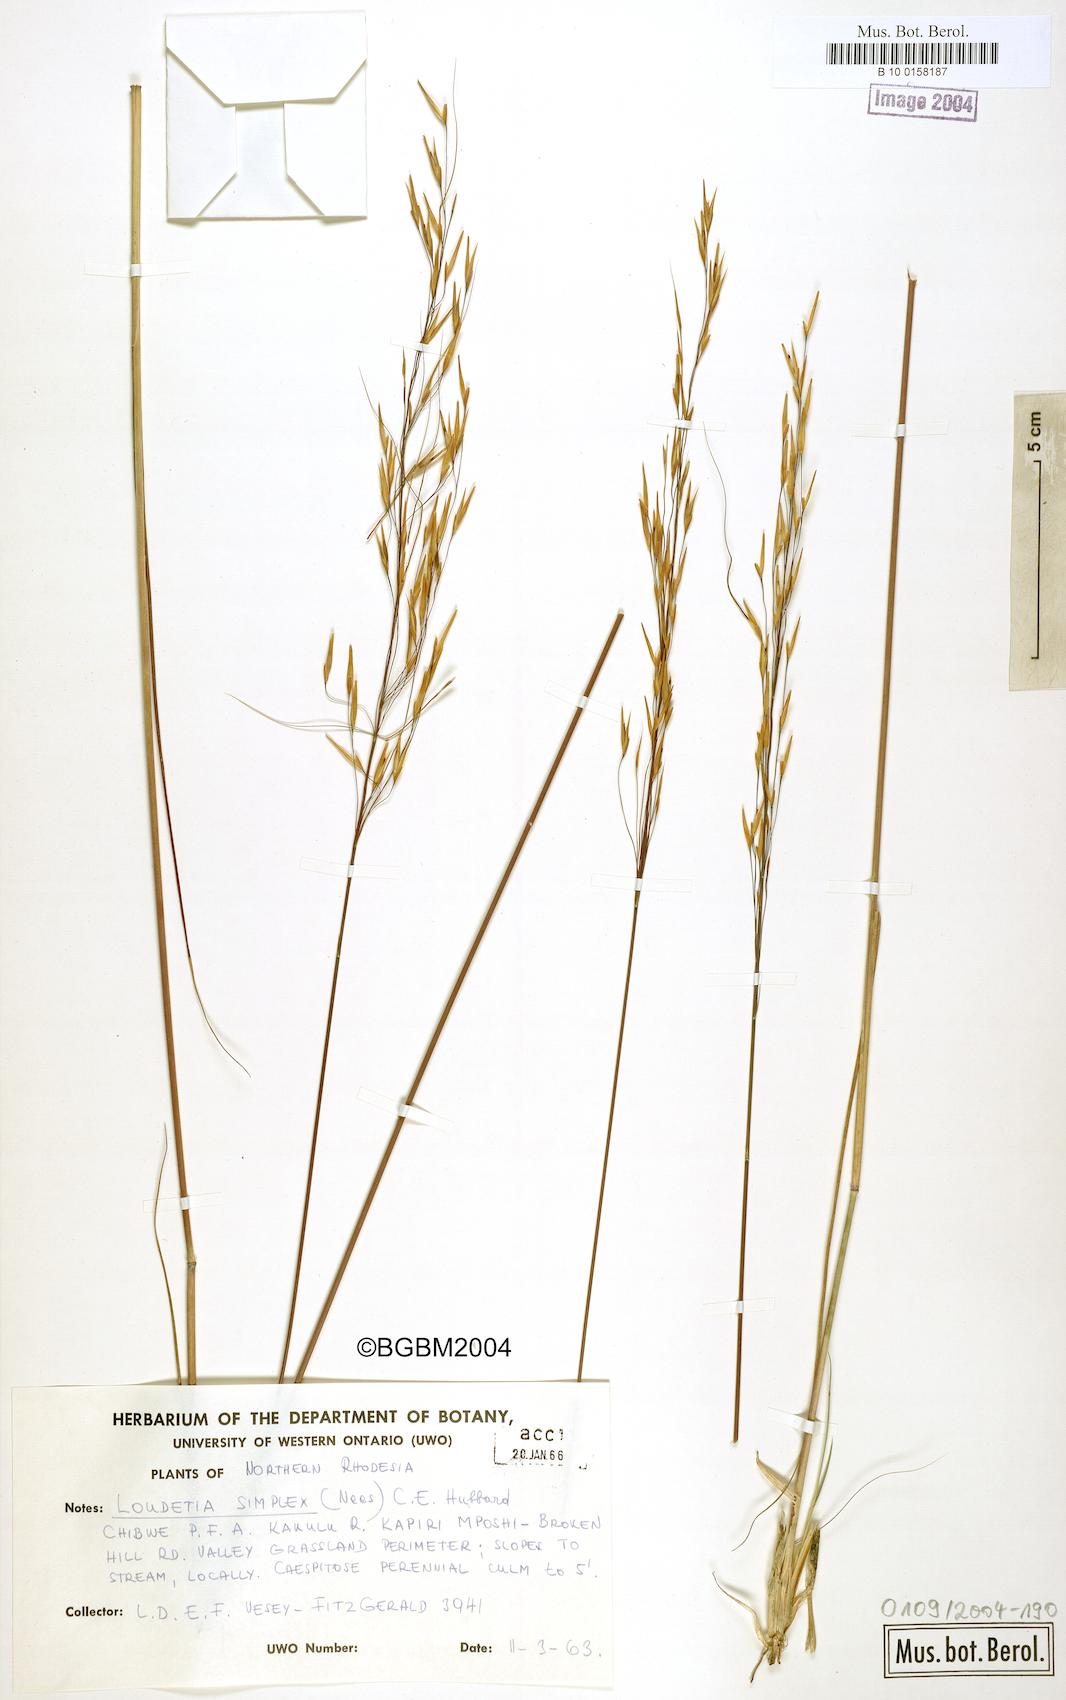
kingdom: Plantae
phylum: Tracheophyta
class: Liliopsida
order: Poales
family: Poaceae
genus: Loudetia
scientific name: Loudetia simplex
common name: Common russet grass
